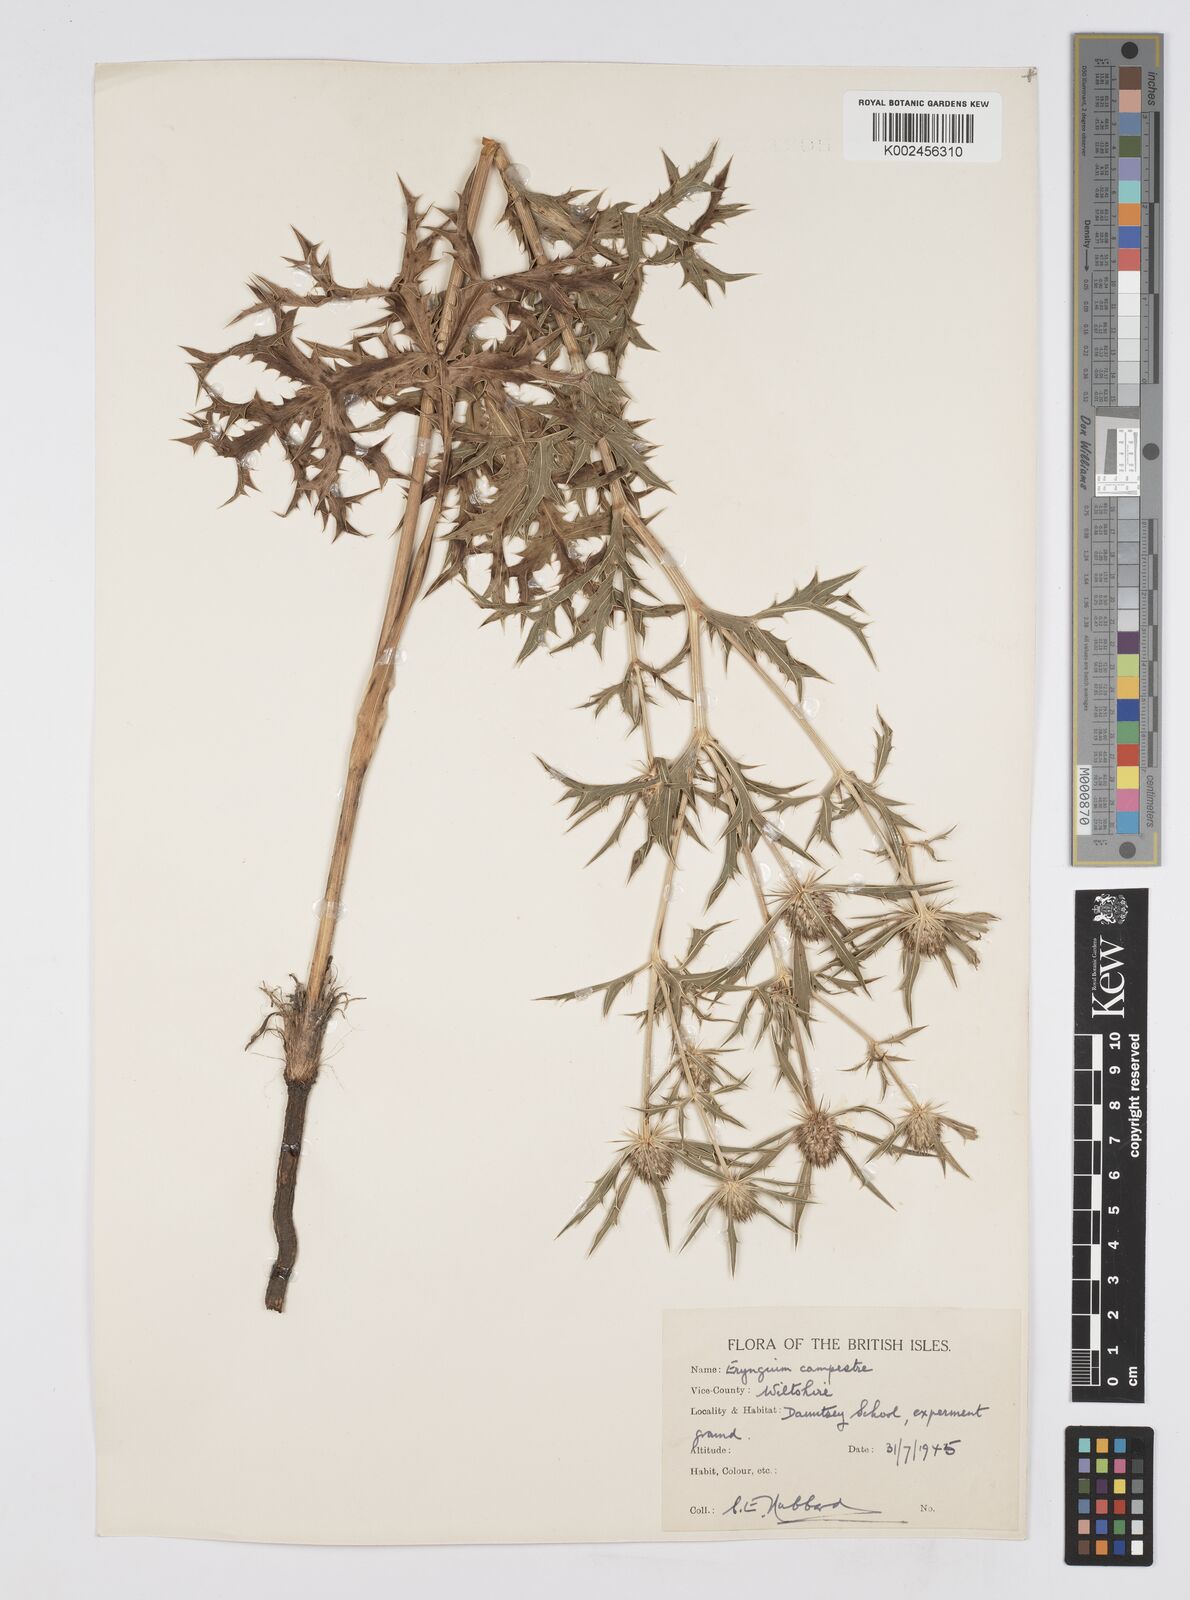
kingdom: Plantae
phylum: Tracheophyta
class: Magnoliopsida
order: Apiales
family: Apiaceae
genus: Eryngium
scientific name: Eryngium campestre
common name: Field eryngo
